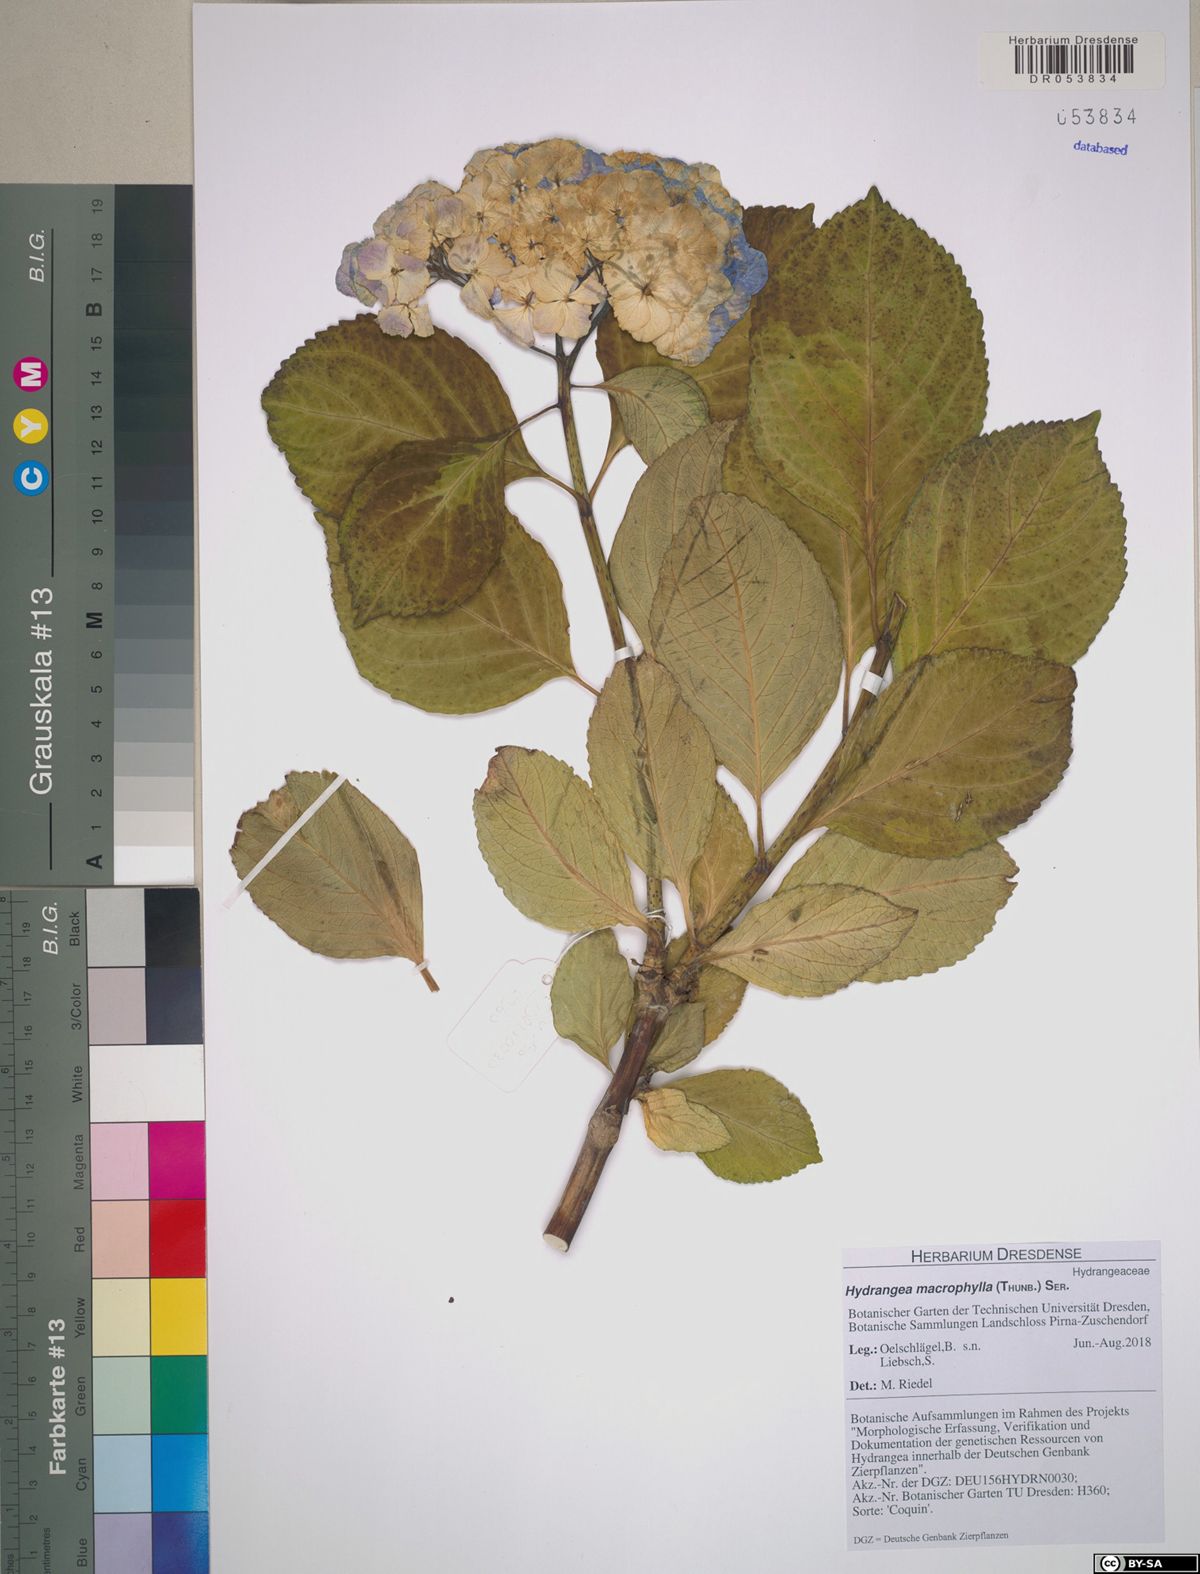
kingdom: Plantae
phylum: Tracheophyta
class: Magnoliopsida
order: Cornales
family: Hydrangeaceae
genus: Hydrangea
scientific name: Hydrangea macrophylla
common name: Hydrangea
